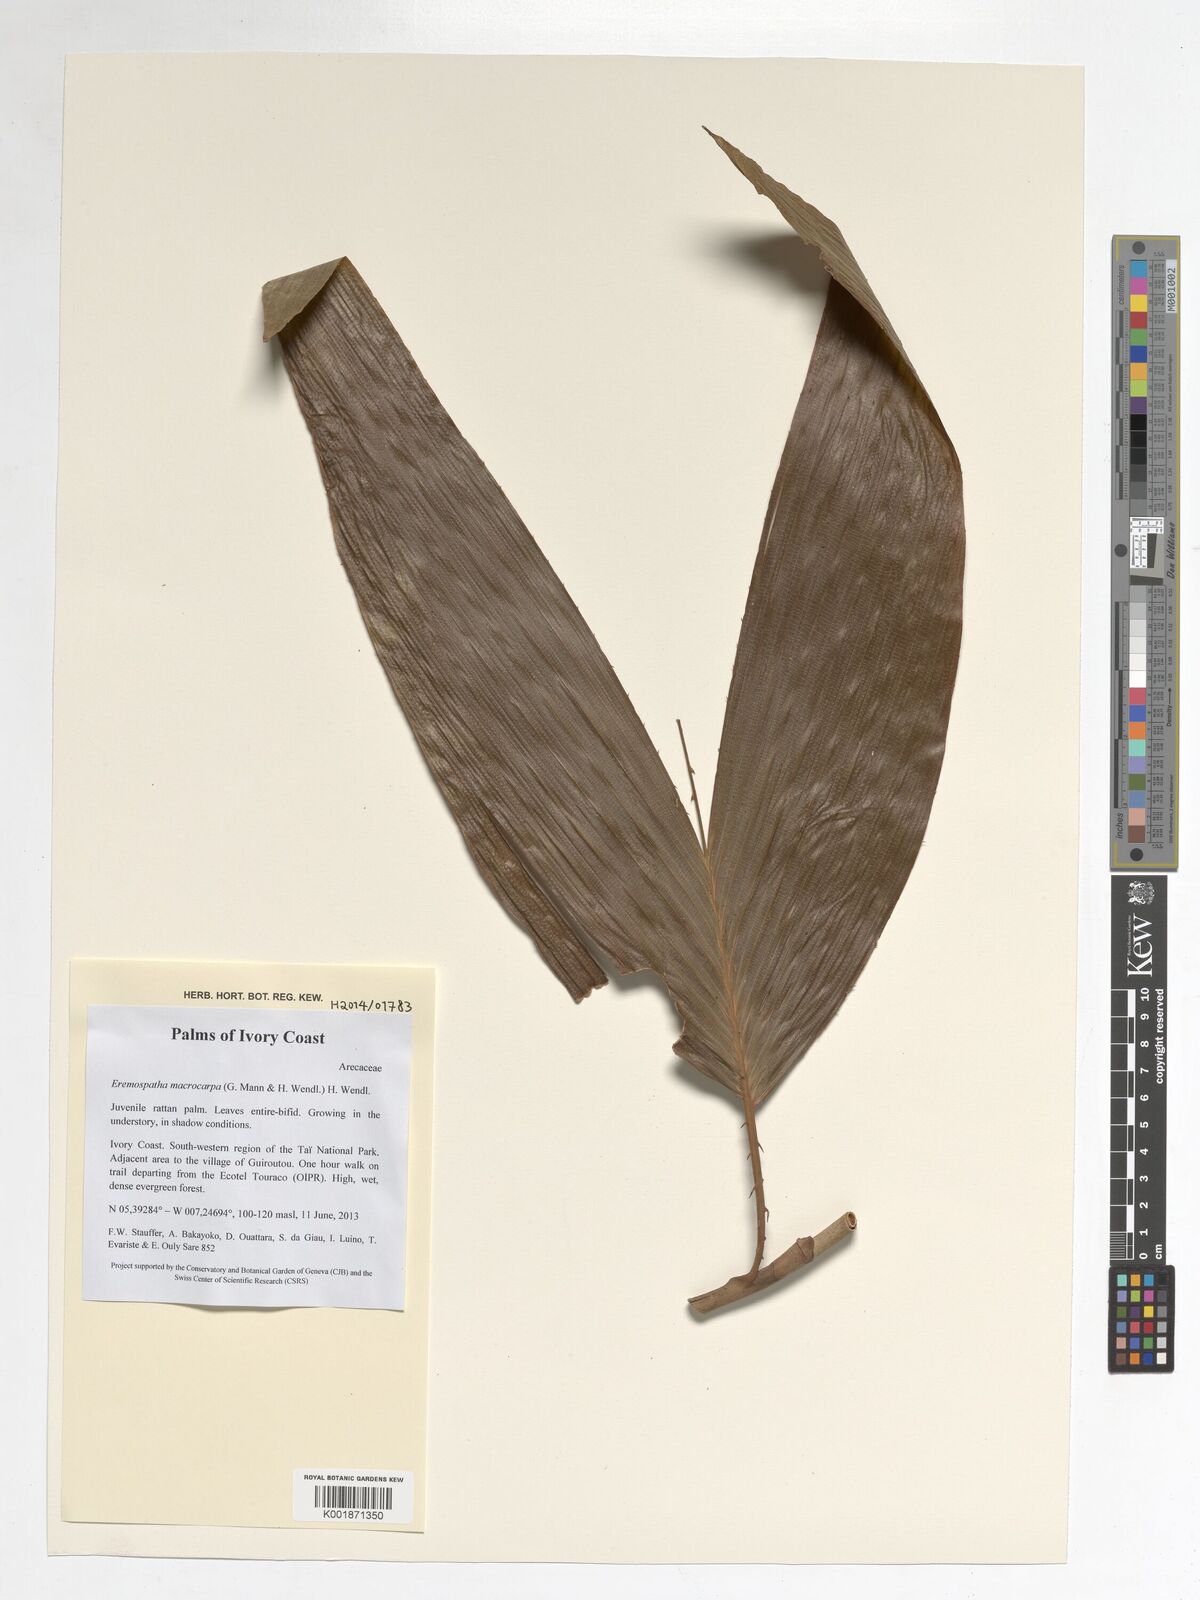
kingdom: Plantae
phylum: Tracheophyta
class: Liliopsida
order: Arecales
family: Arecaceae
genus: Eremospatha
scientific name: Eremospatha macrocarpa
